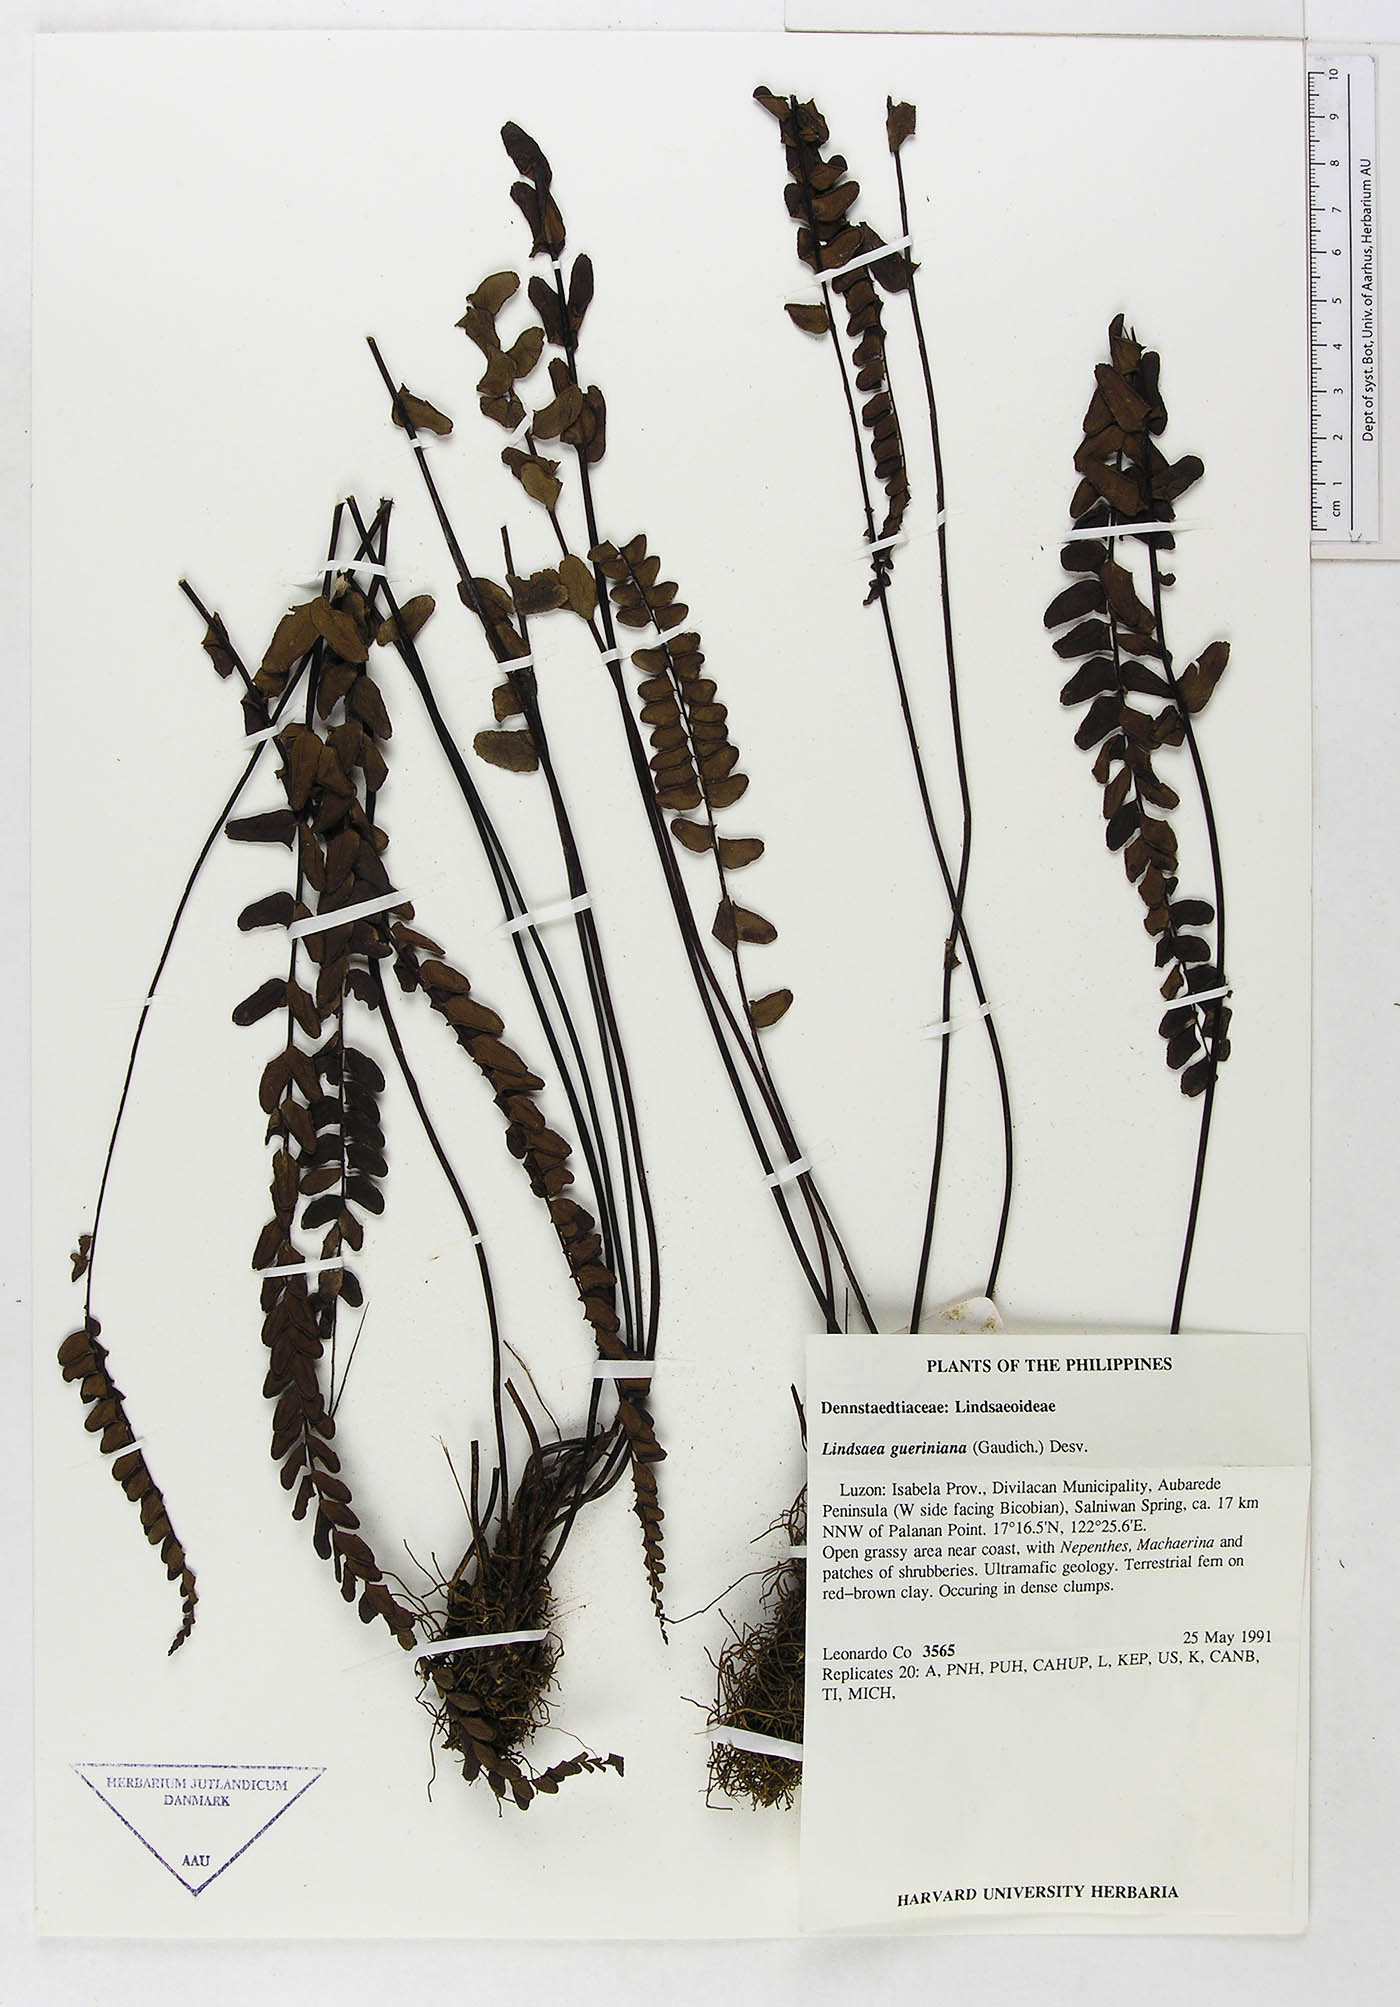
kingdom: Plantae
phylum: Tracheophyta
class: Polypodiopsida
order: Polypodiales
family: Dennstaedtiaceae
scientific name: Dennstaedtiaceae
